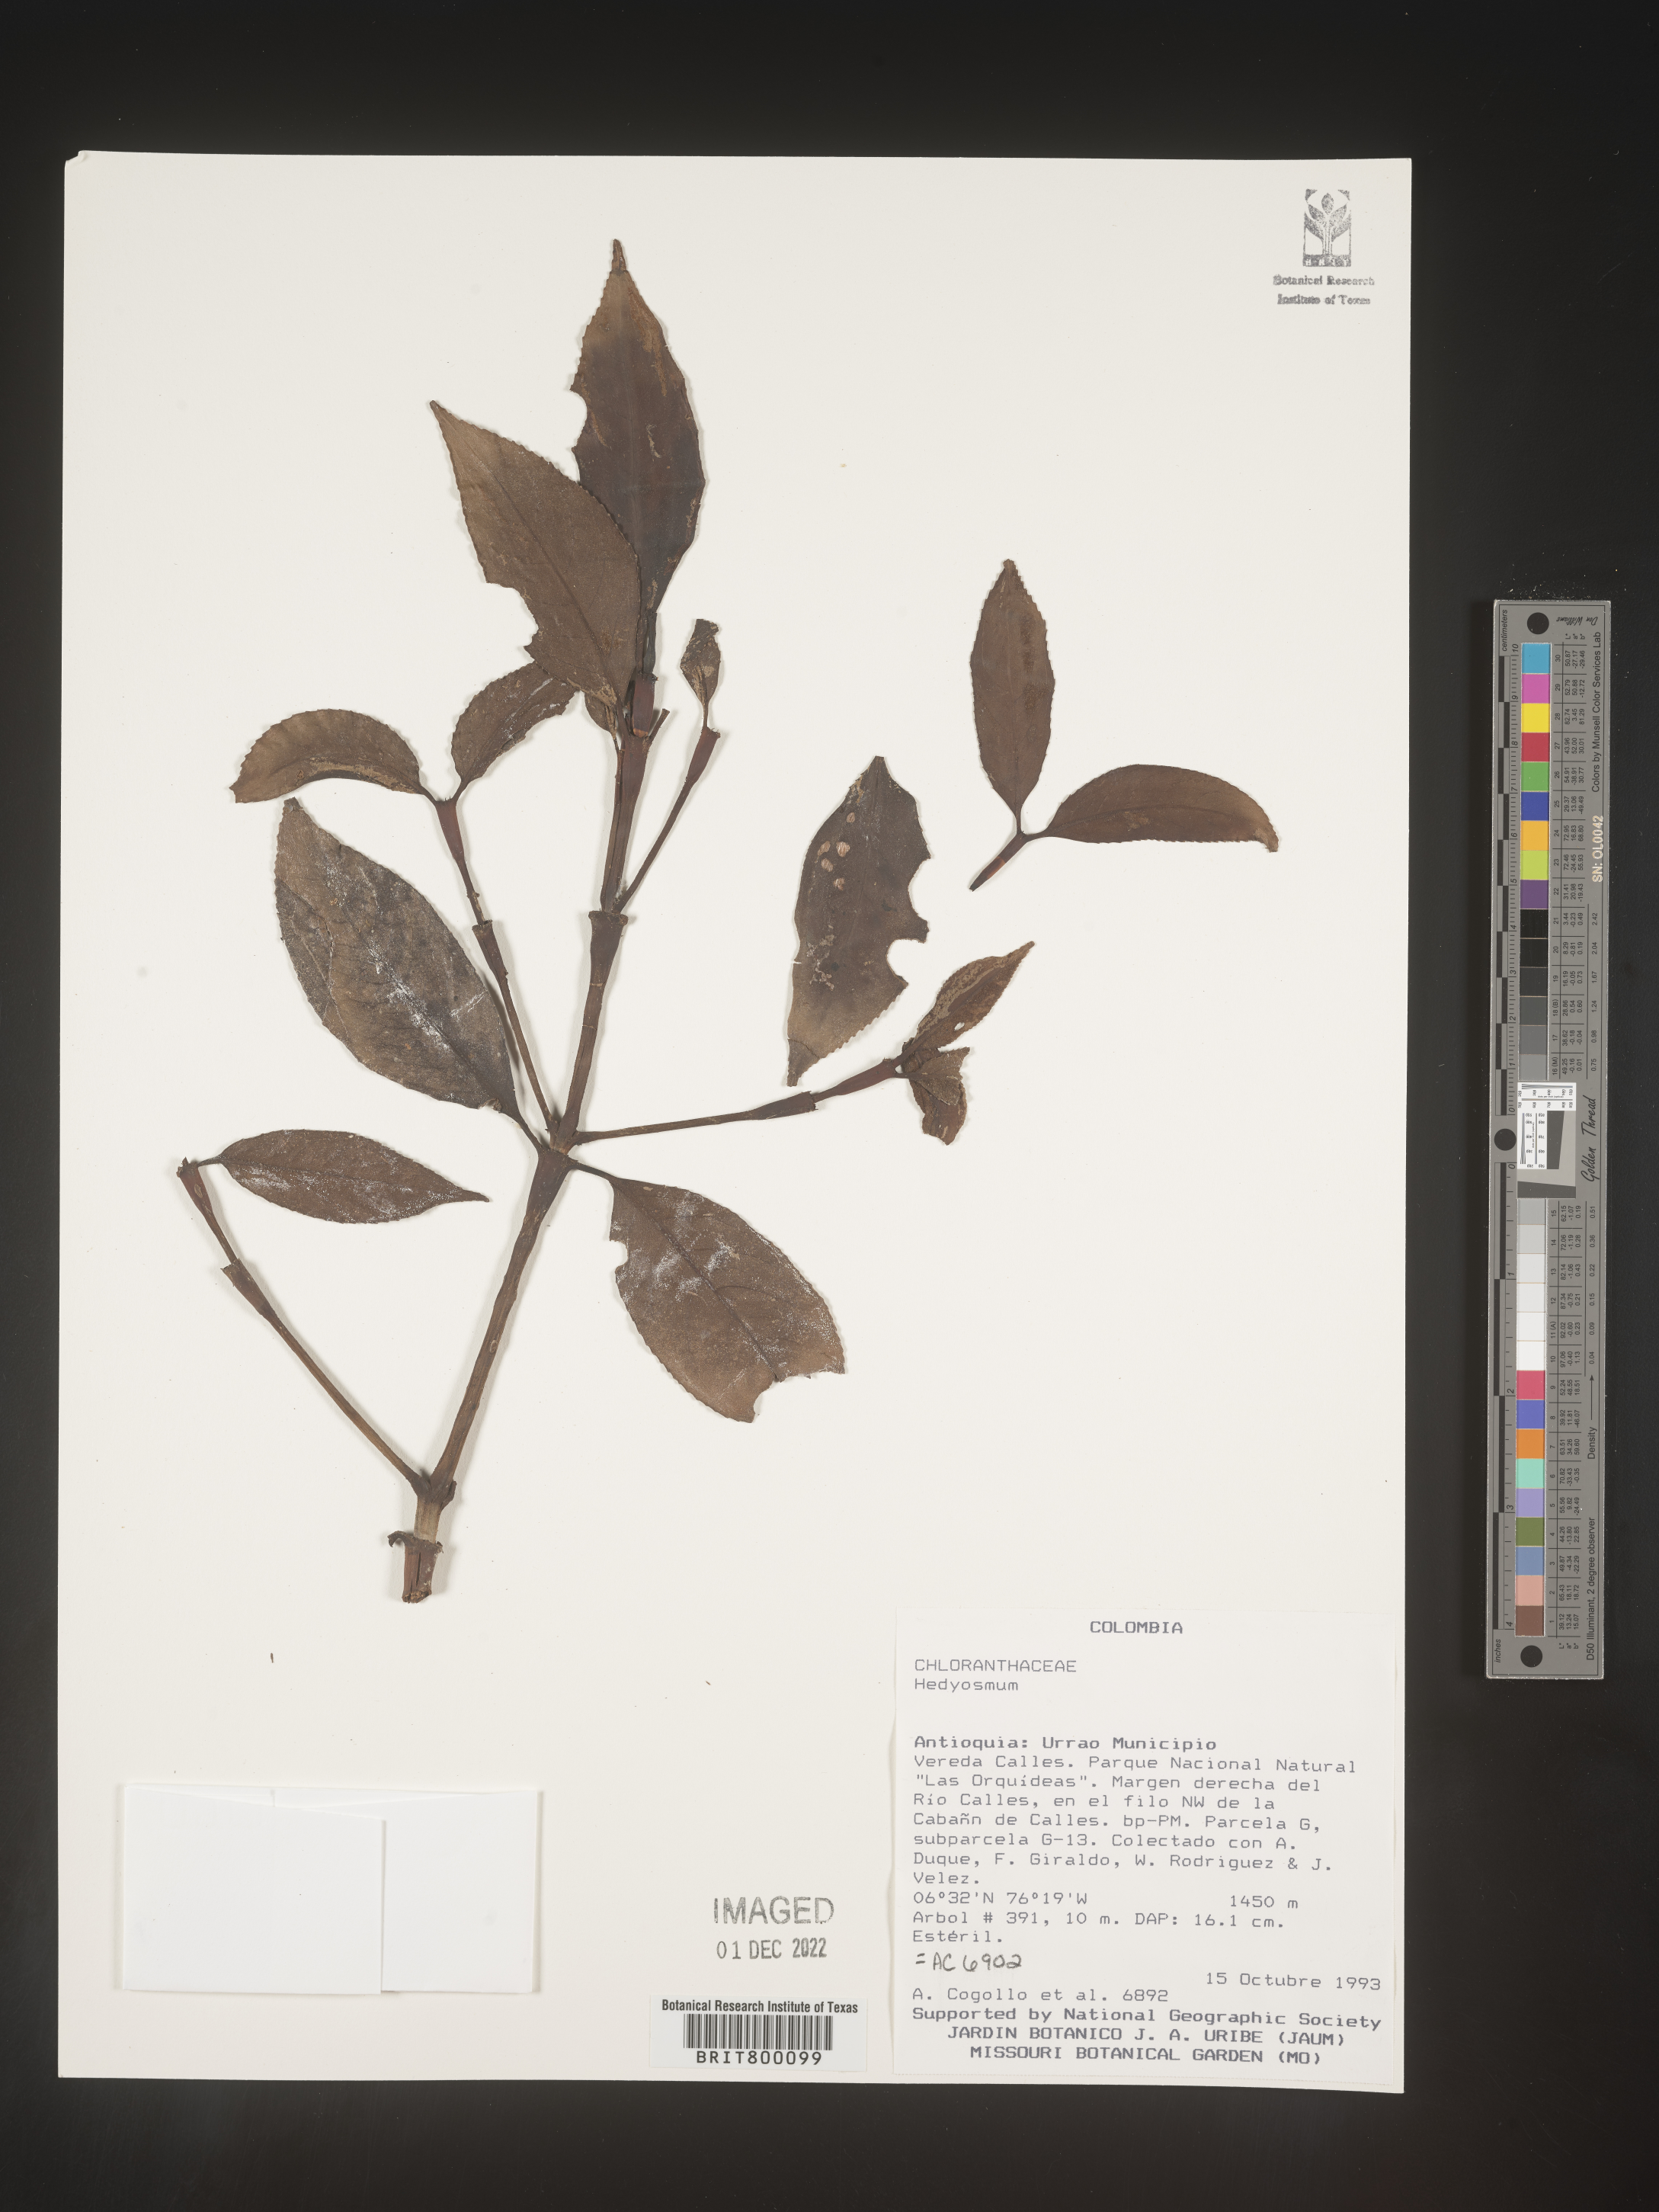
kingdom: Plantae
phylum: Tracheophyta
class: Magnoliopsida
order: Chloranthales
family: Chloranthaceae
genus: Hedyosmum
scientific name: Hedyosmum
